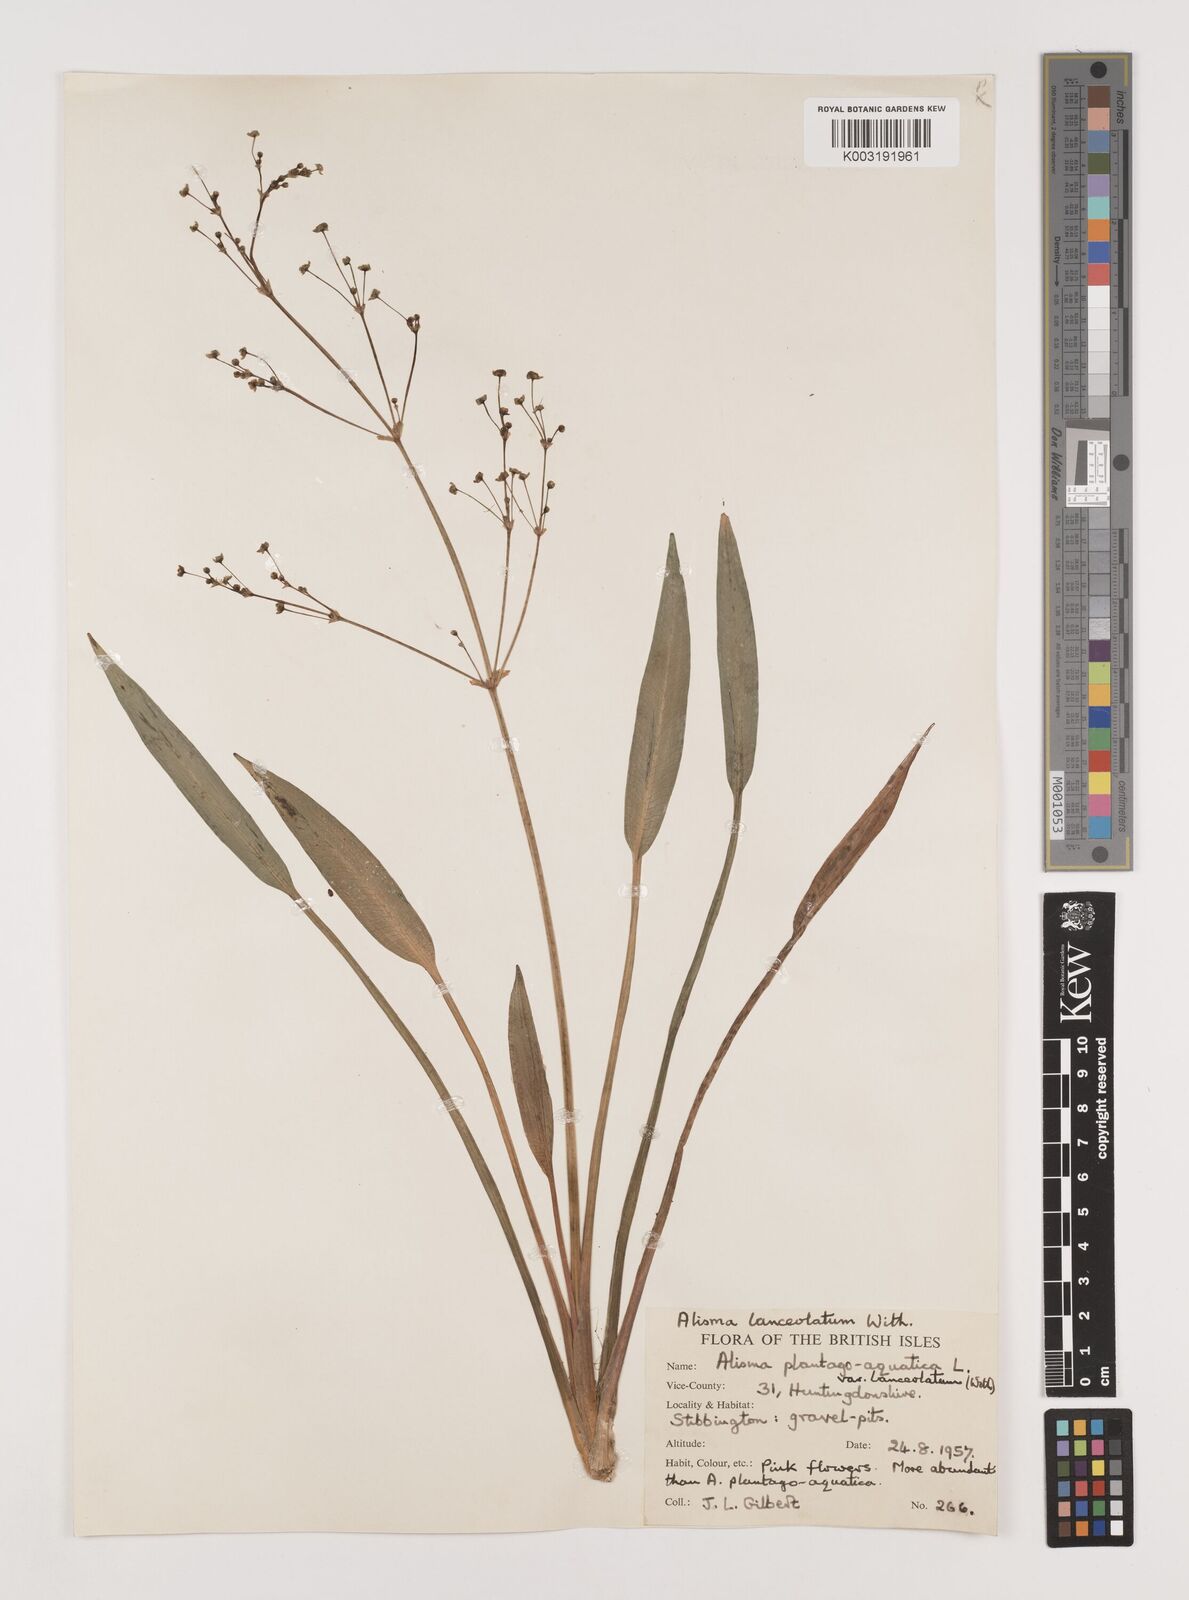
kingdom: Plantae
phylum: Tracheophyta
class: Liliopsida
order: Alismatales
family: Alismataceae
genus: Alisma
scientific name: Alisma lanceolatum
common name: Narrow-leaved water-plantain
